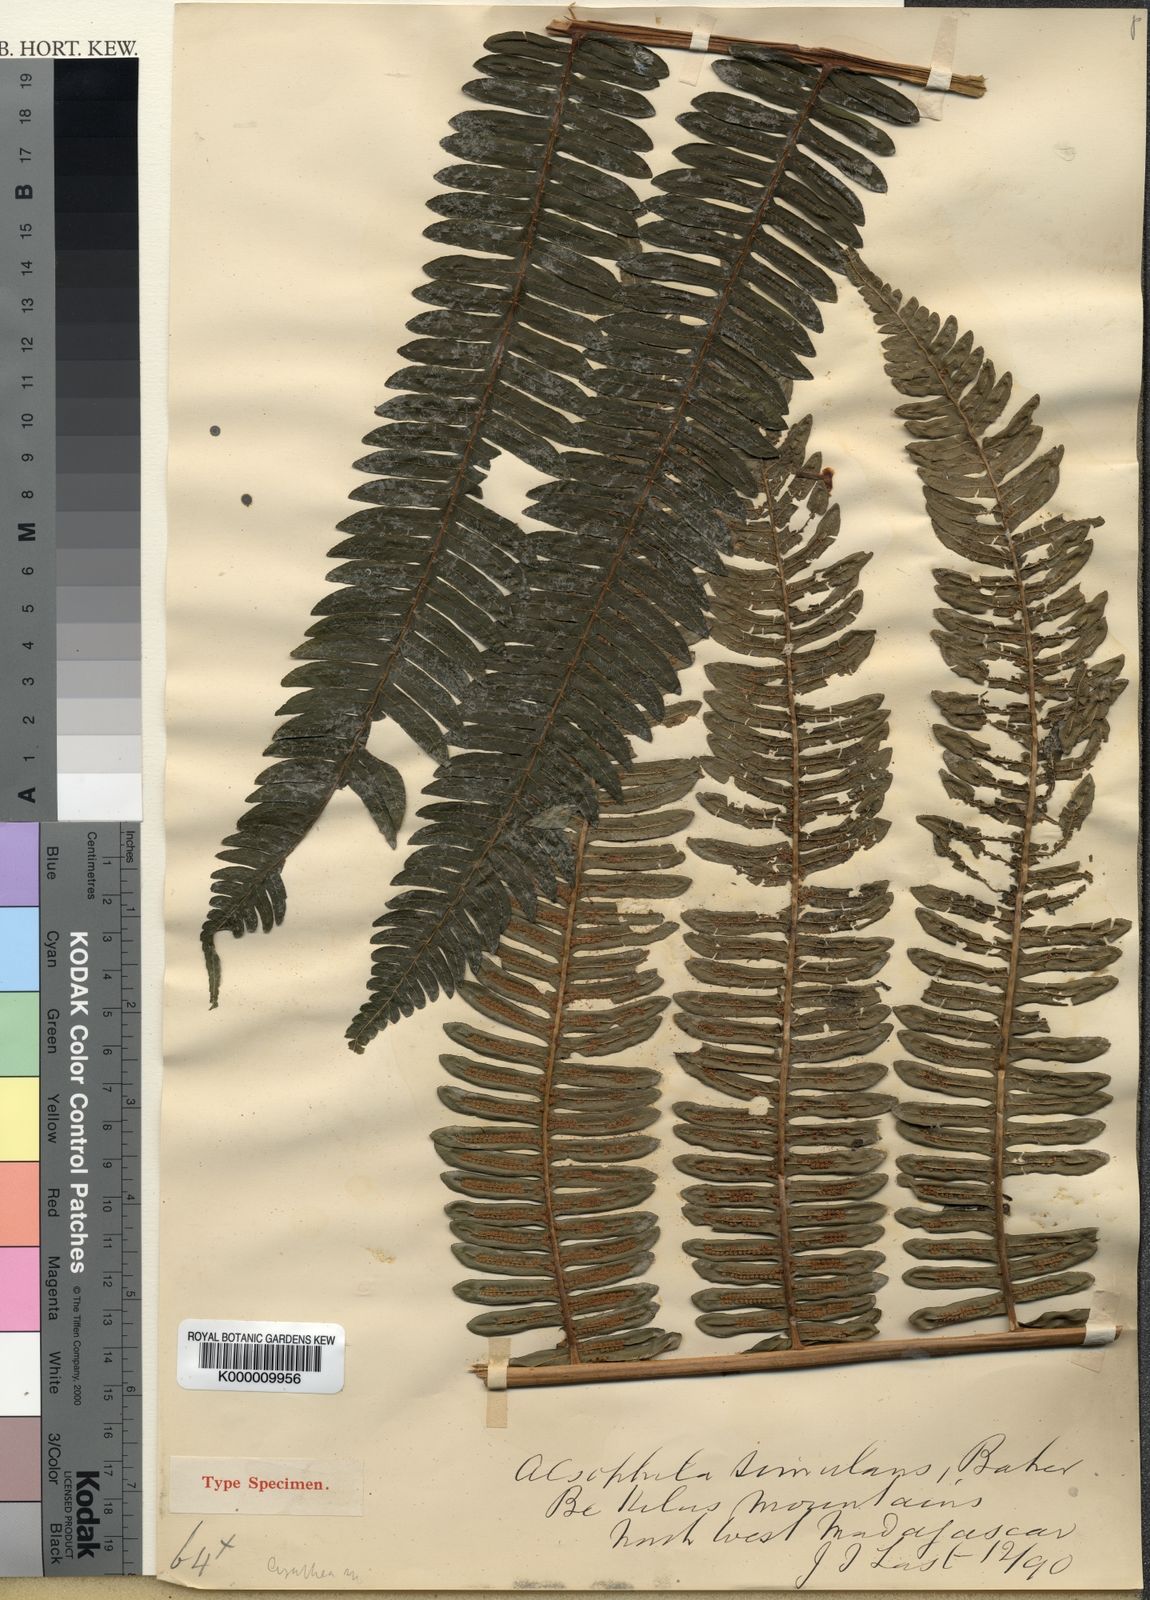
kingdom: Plantae
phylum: Tracheophyta
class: Polypodiopsida
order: Cyatheales
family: Cyatheaceae
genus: Cyathea
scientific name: Cyathea
